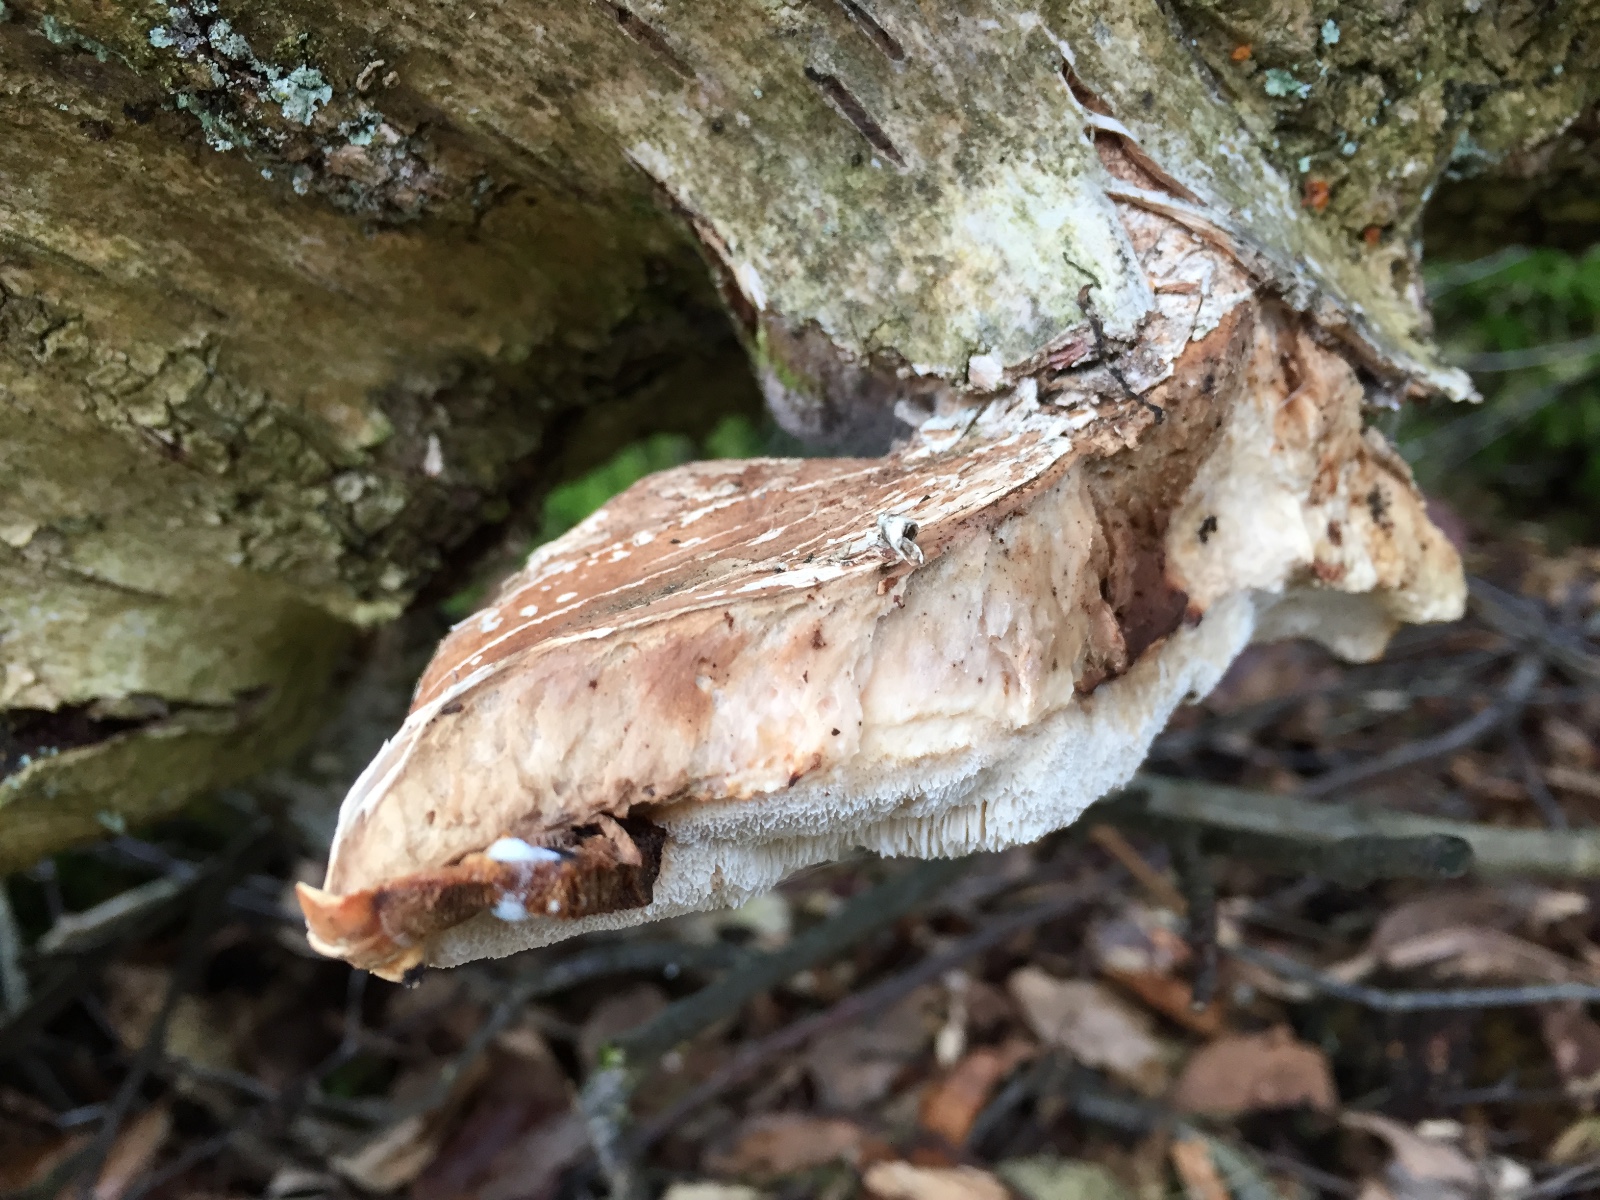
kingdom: Fungi
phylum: Basidiomycota
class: Agaricomycetes
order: Polyporales
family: Fomitopsidaceae
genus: Fomitopsis
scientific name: Fomitopsis betulina
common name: birkeporesvamp
